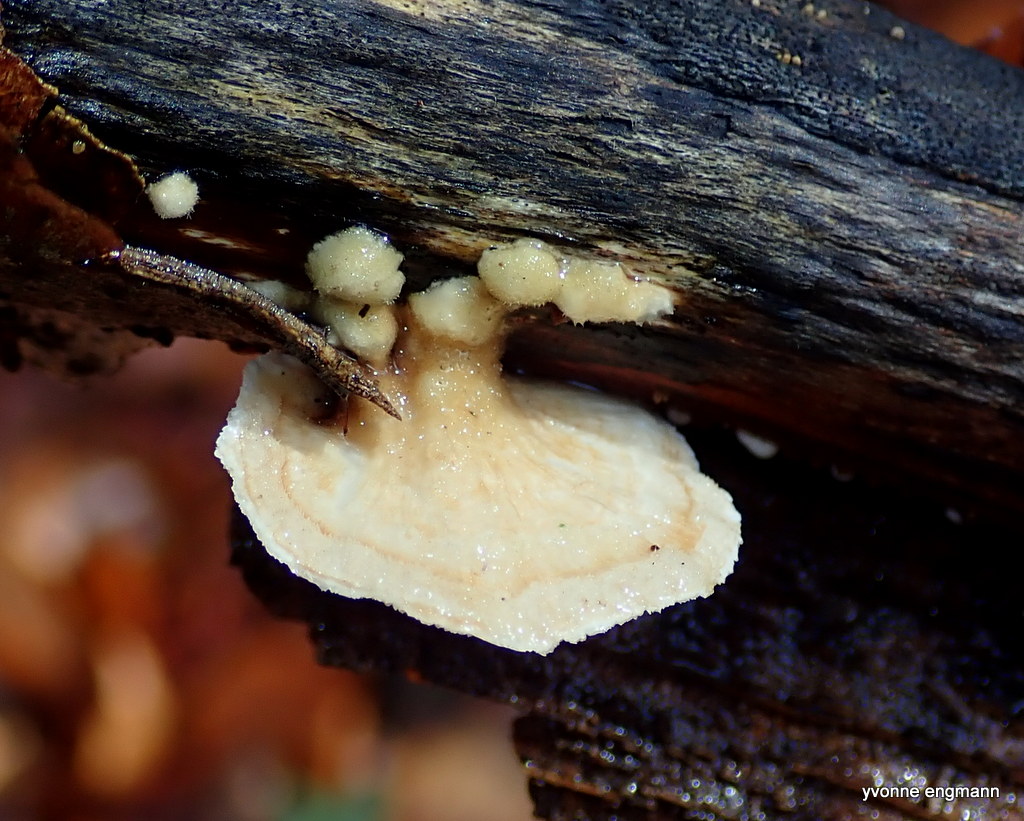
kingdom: Fungi
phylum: Basidiomycota
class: Agaricomycetes
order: Polyporales
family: Polyporaceae
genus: Trametes
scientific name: Trametes
